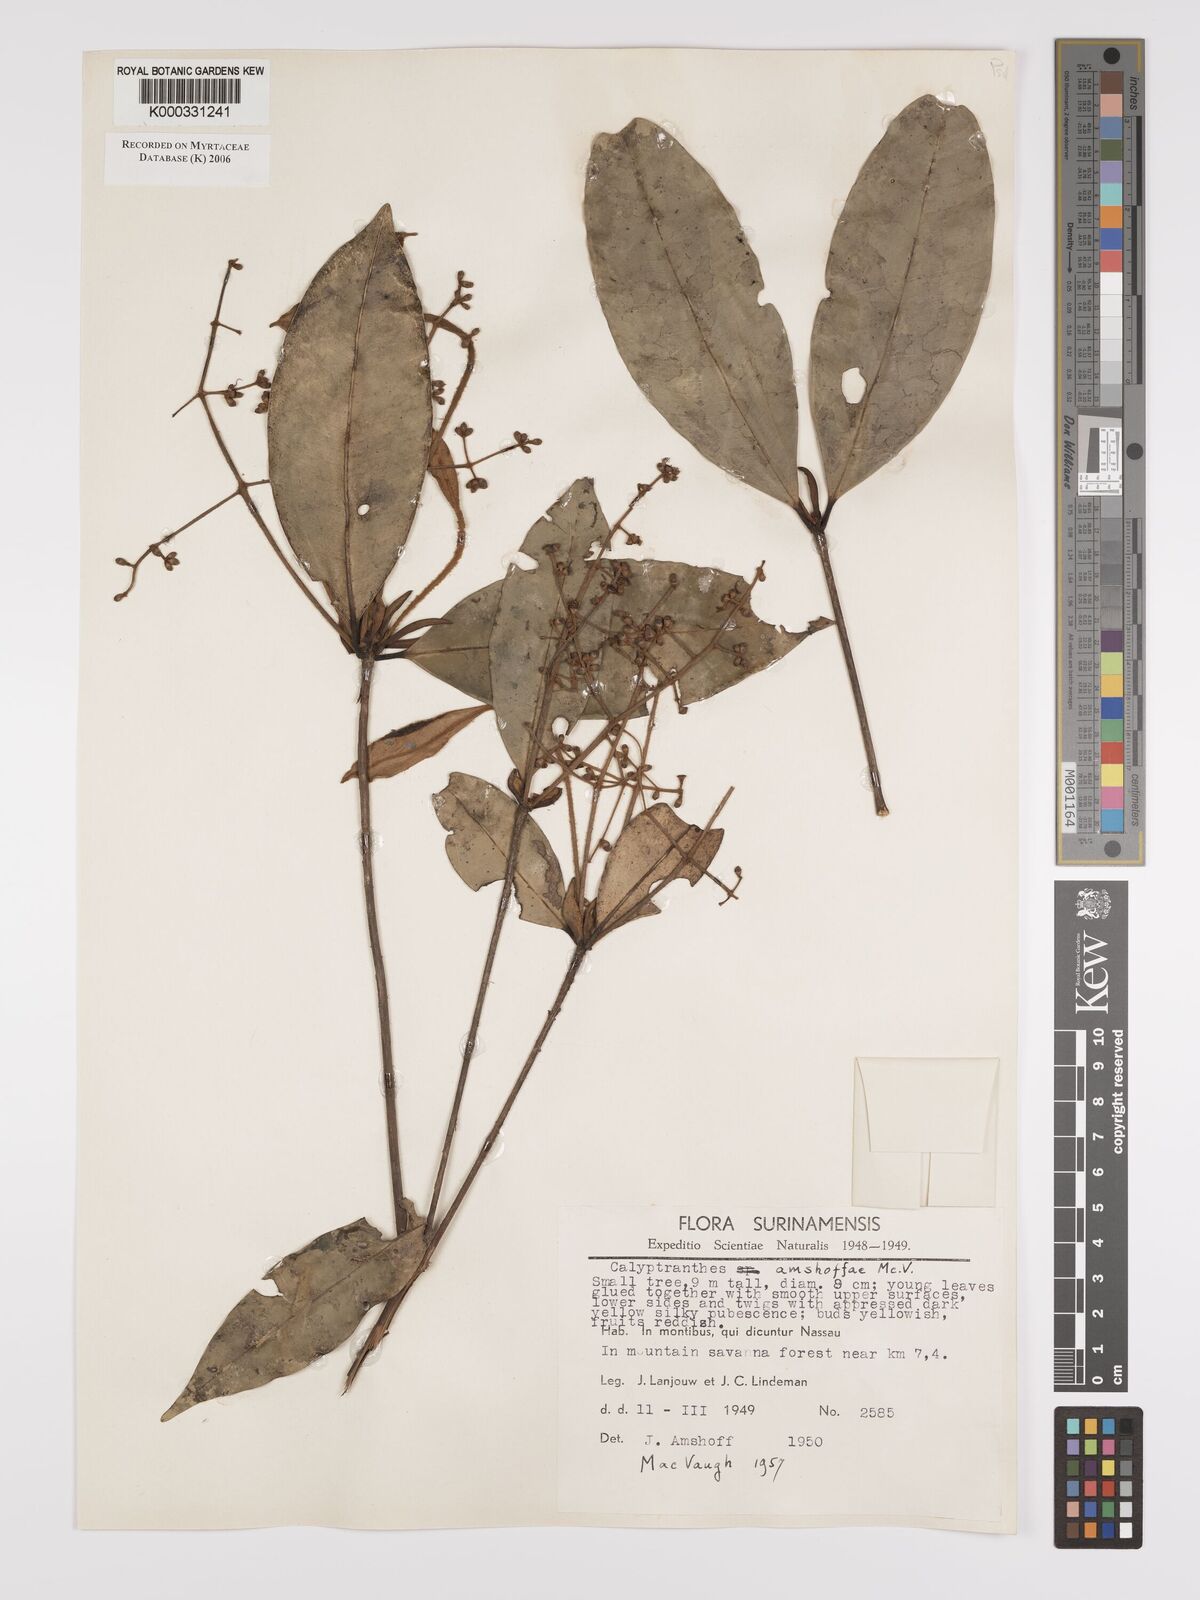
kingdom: Plantae
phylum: Tracheophyta
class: Magnoliopsida
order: Myrtales
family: Myrtaceae
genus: Myrcia
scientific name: Myrcia amshoffae
